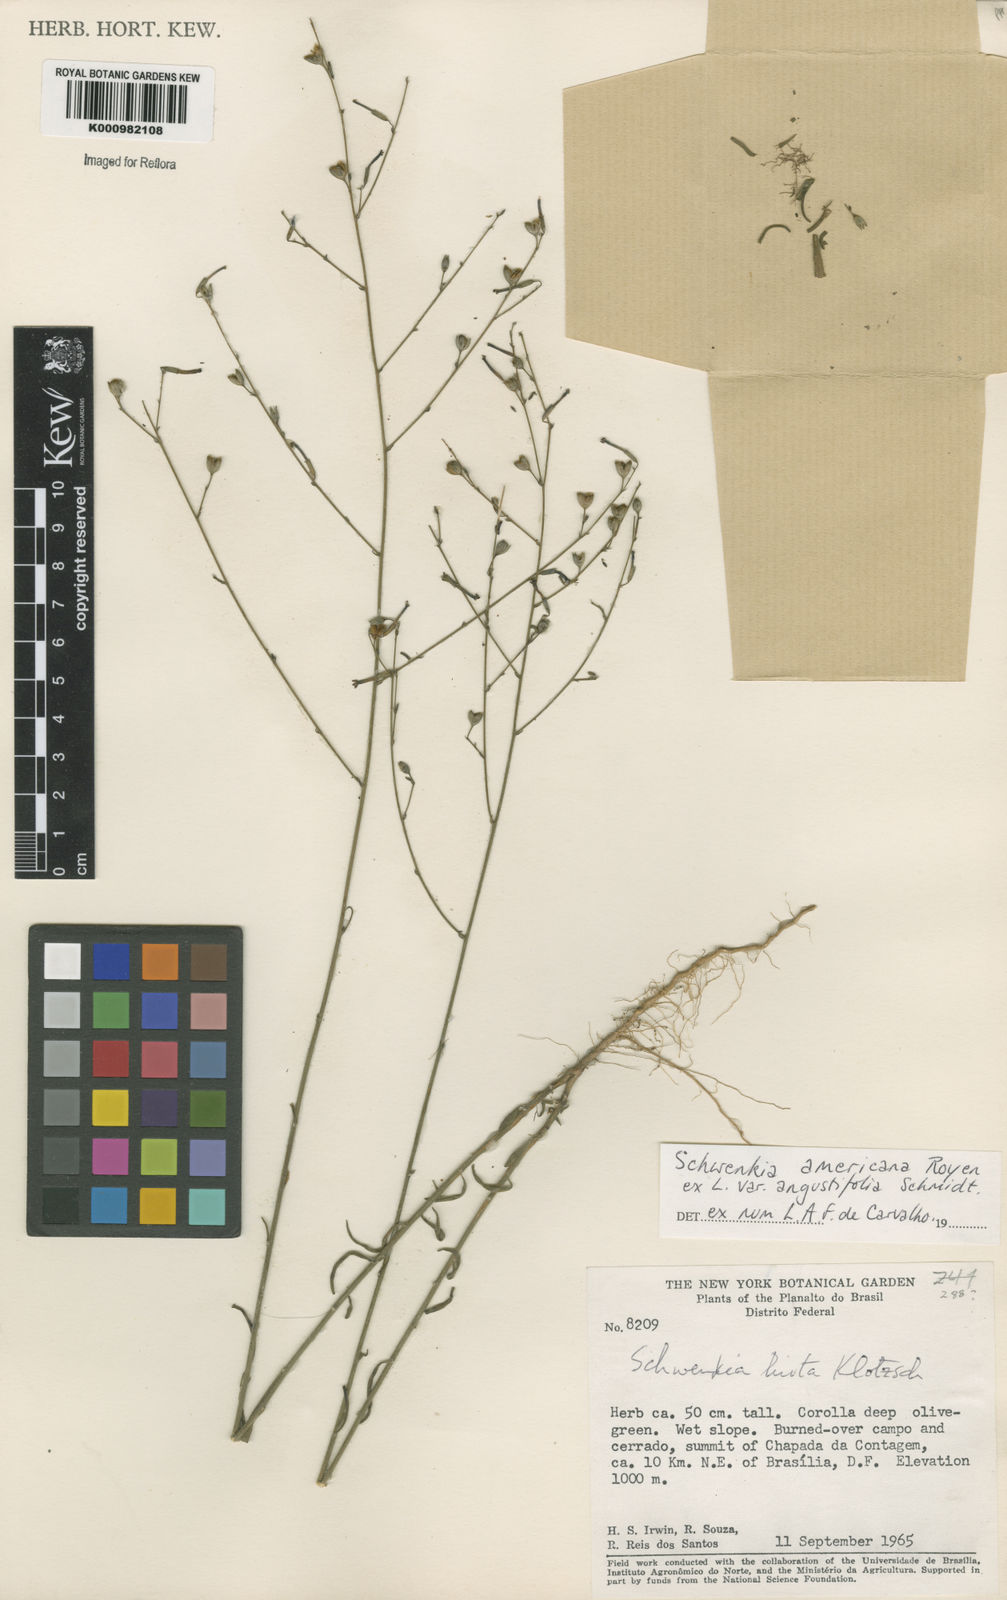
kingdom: Plantae
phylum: Tracheophyta
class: Magnoliopsida
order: Solanales
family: Solanaceae
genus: Schwenckia
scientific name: Schwenckia americana
